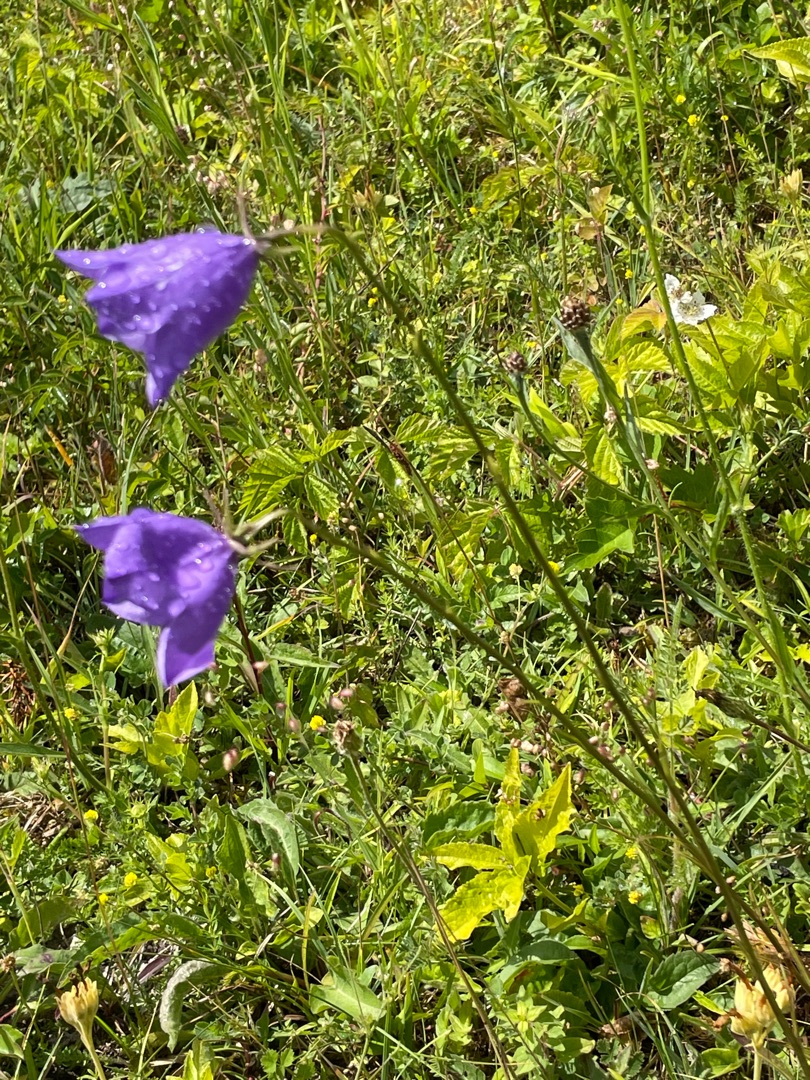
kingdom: Plantae
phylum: Tracheophyta
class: Magnoliopsida
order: Asterales
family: Campanulaceae
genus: Campanula
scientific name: Campanula persicifolia
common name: Smalbladet klokke
